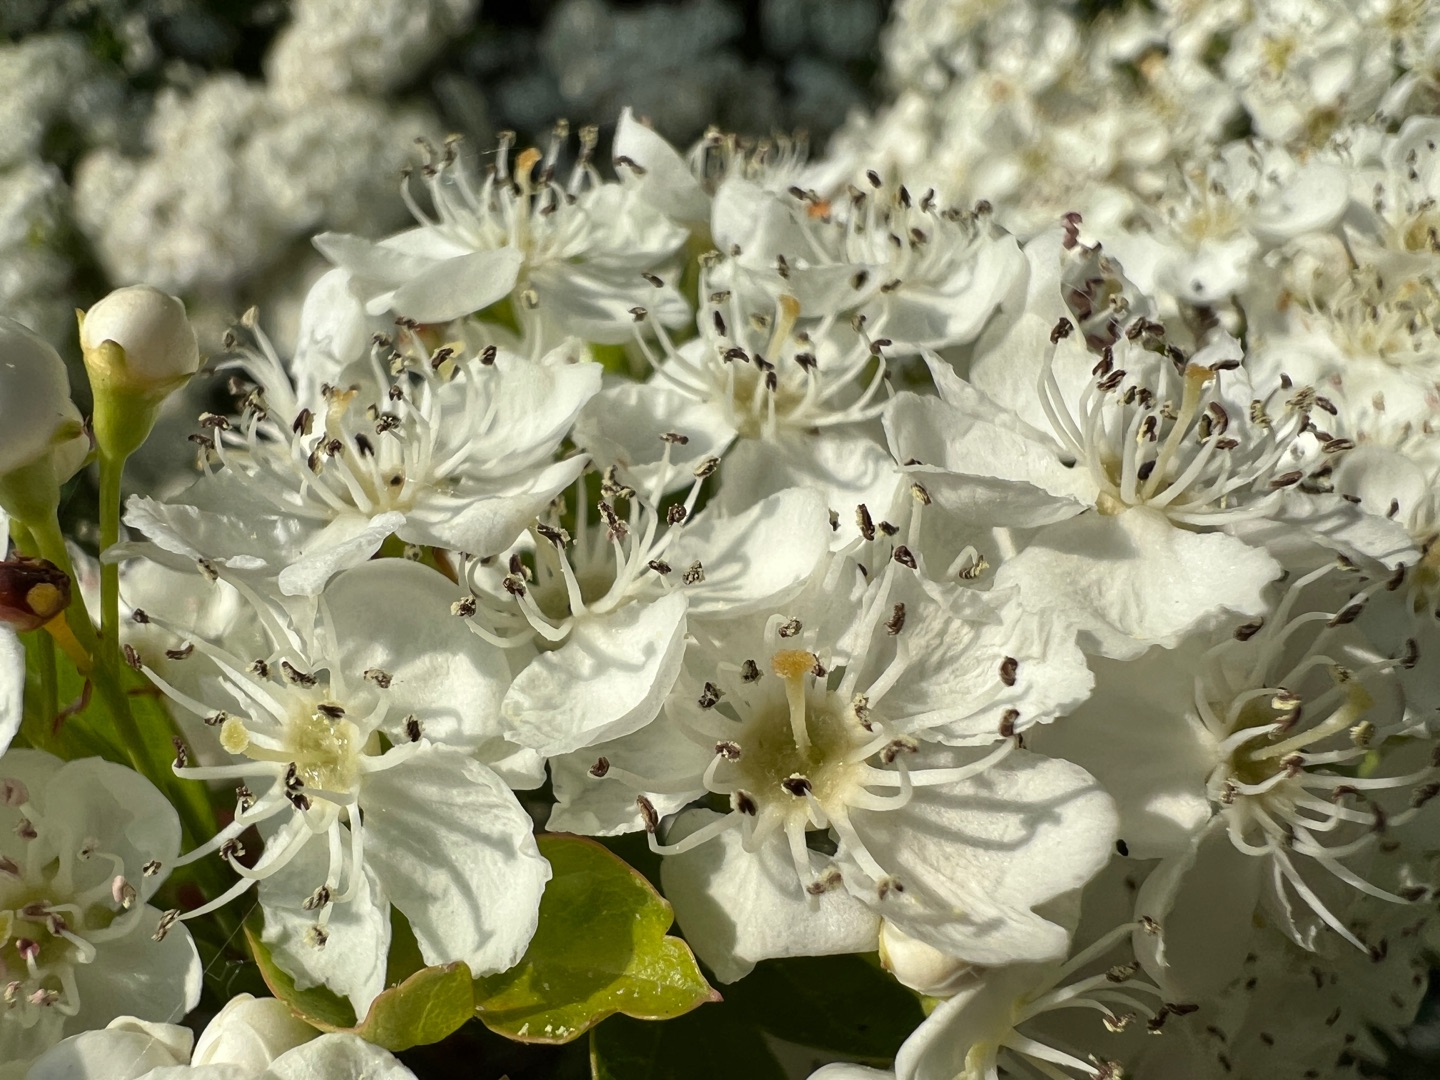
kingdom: Plantae
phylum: Tracheophyta
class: Magnoliopsida
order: Rosales
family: Rosaceae
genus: Crataegus
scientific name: Crataegus monogyna
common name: Engriflet hvidtjørn
